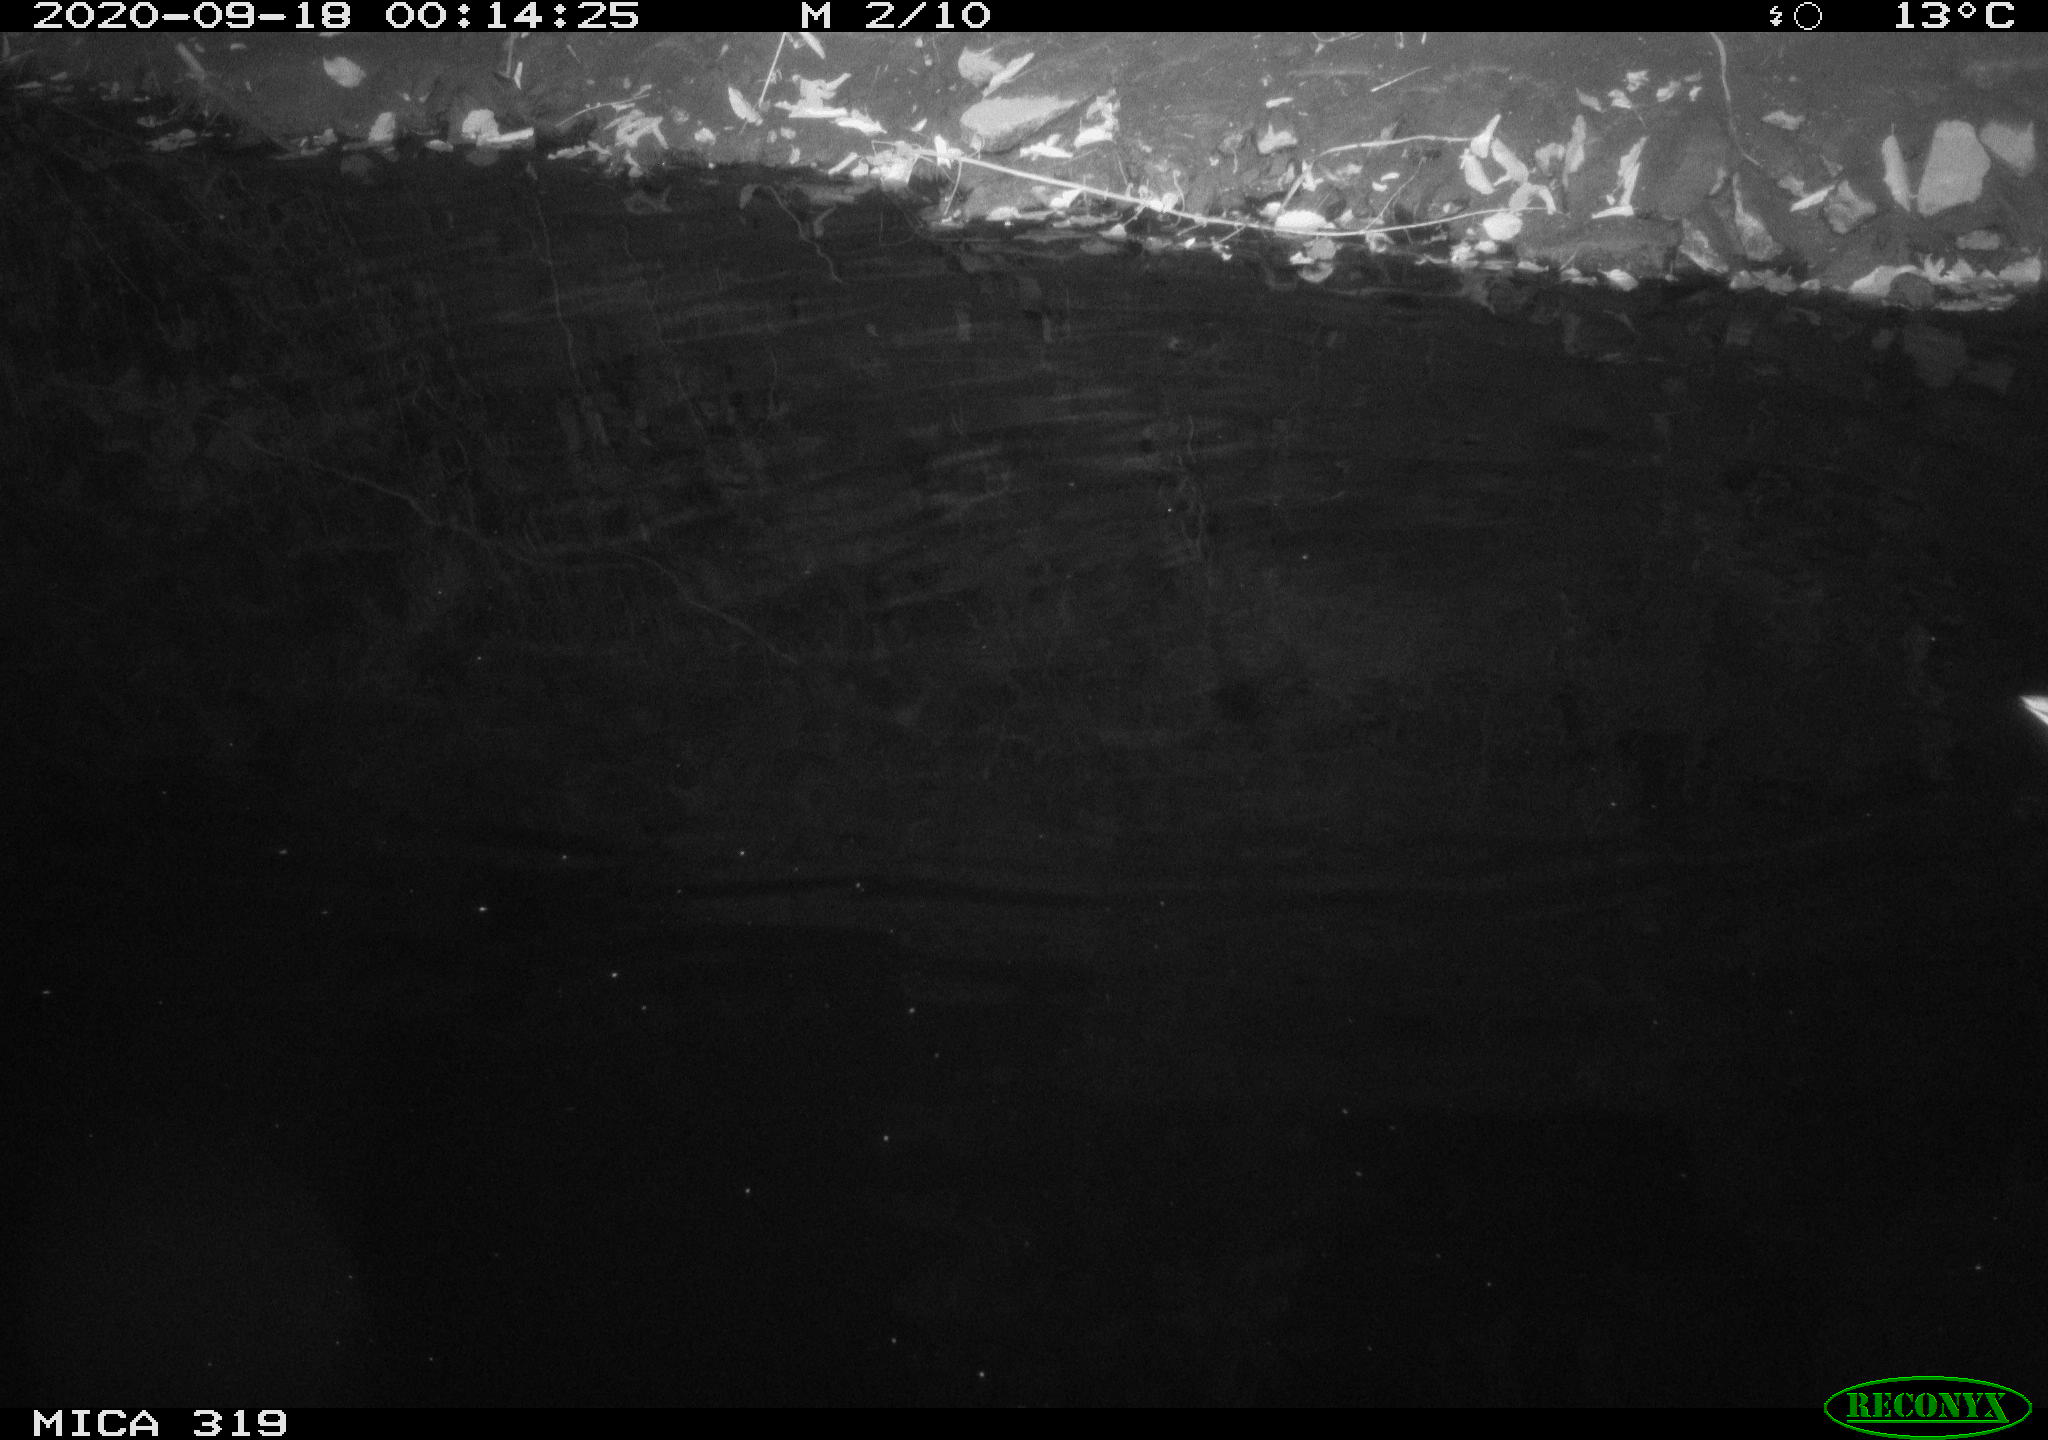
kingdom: Animalia
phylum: Chordata
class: Aves
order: Anseriformes
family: Anatidae
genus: Anas
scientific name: Anas platyrhynchos
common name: Mallard
